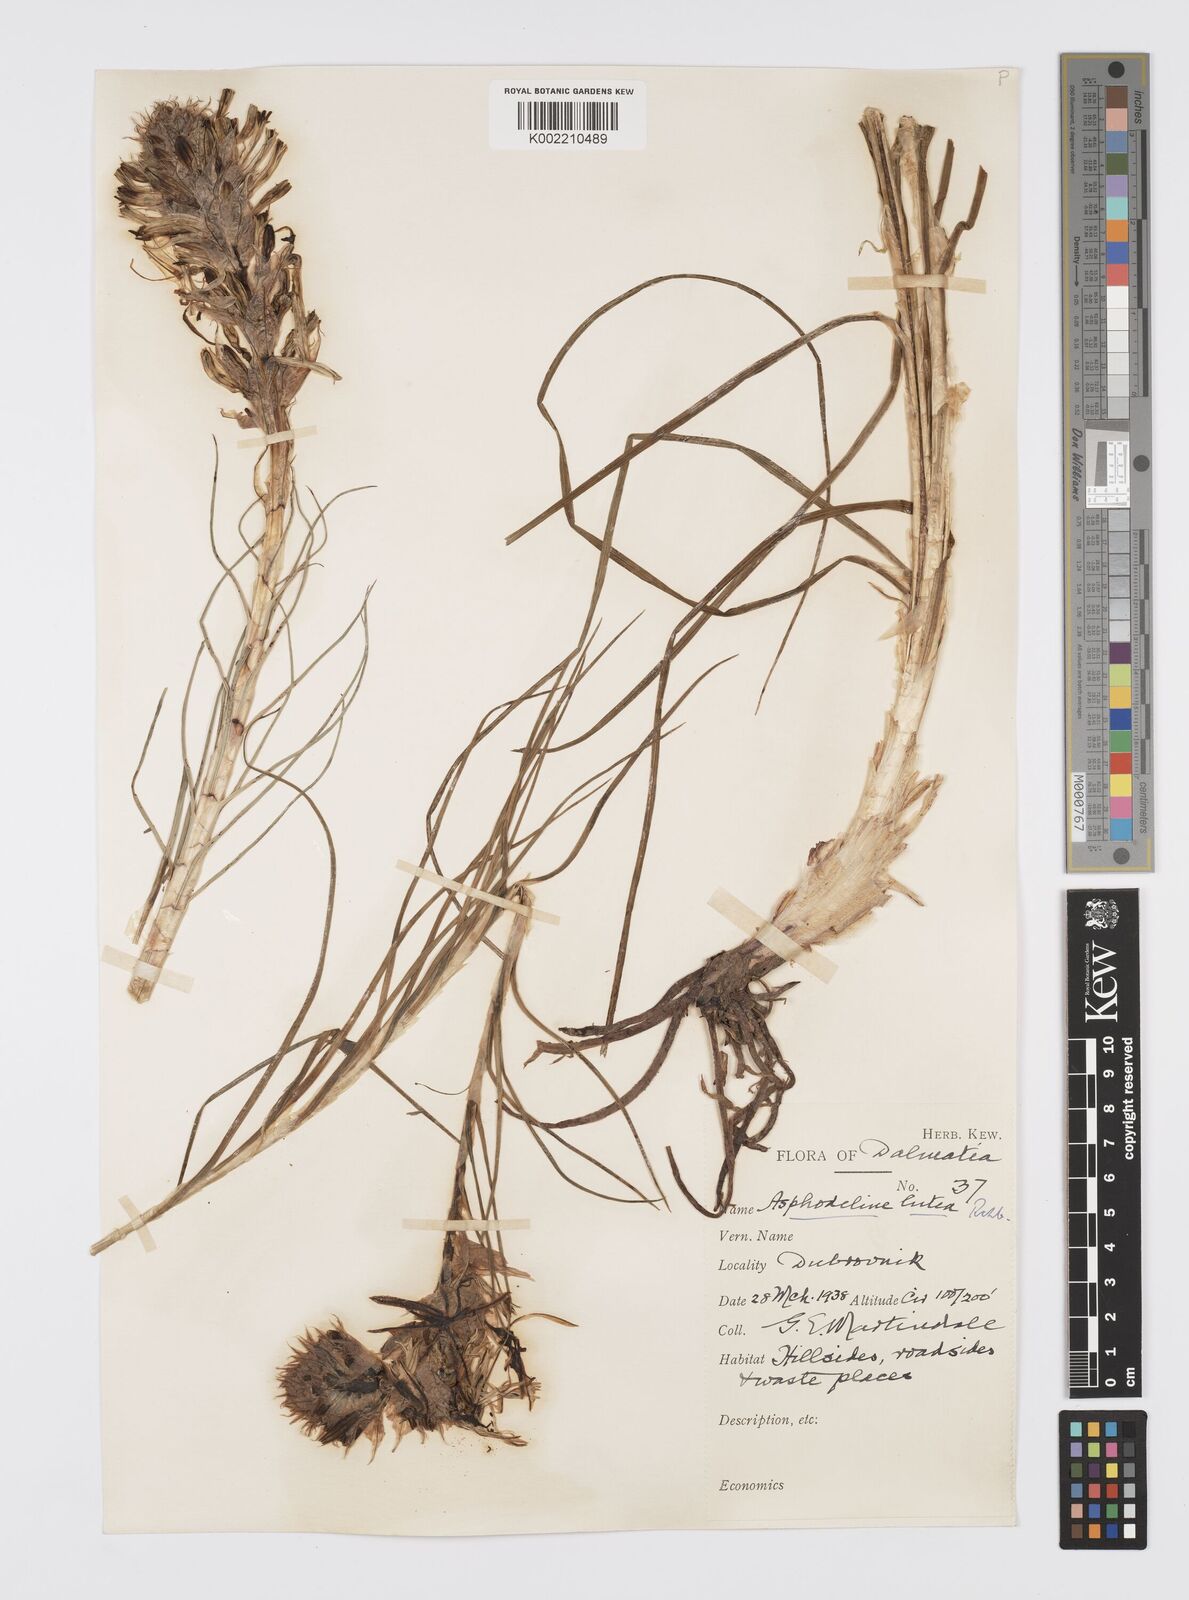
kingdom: Plantae
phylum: Tracheophyta
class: Liliopsida
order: Asparagales
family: Asphodelaceae
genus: Asphodeline
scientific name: Asphodeline lutea
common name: Yellow asphodel
